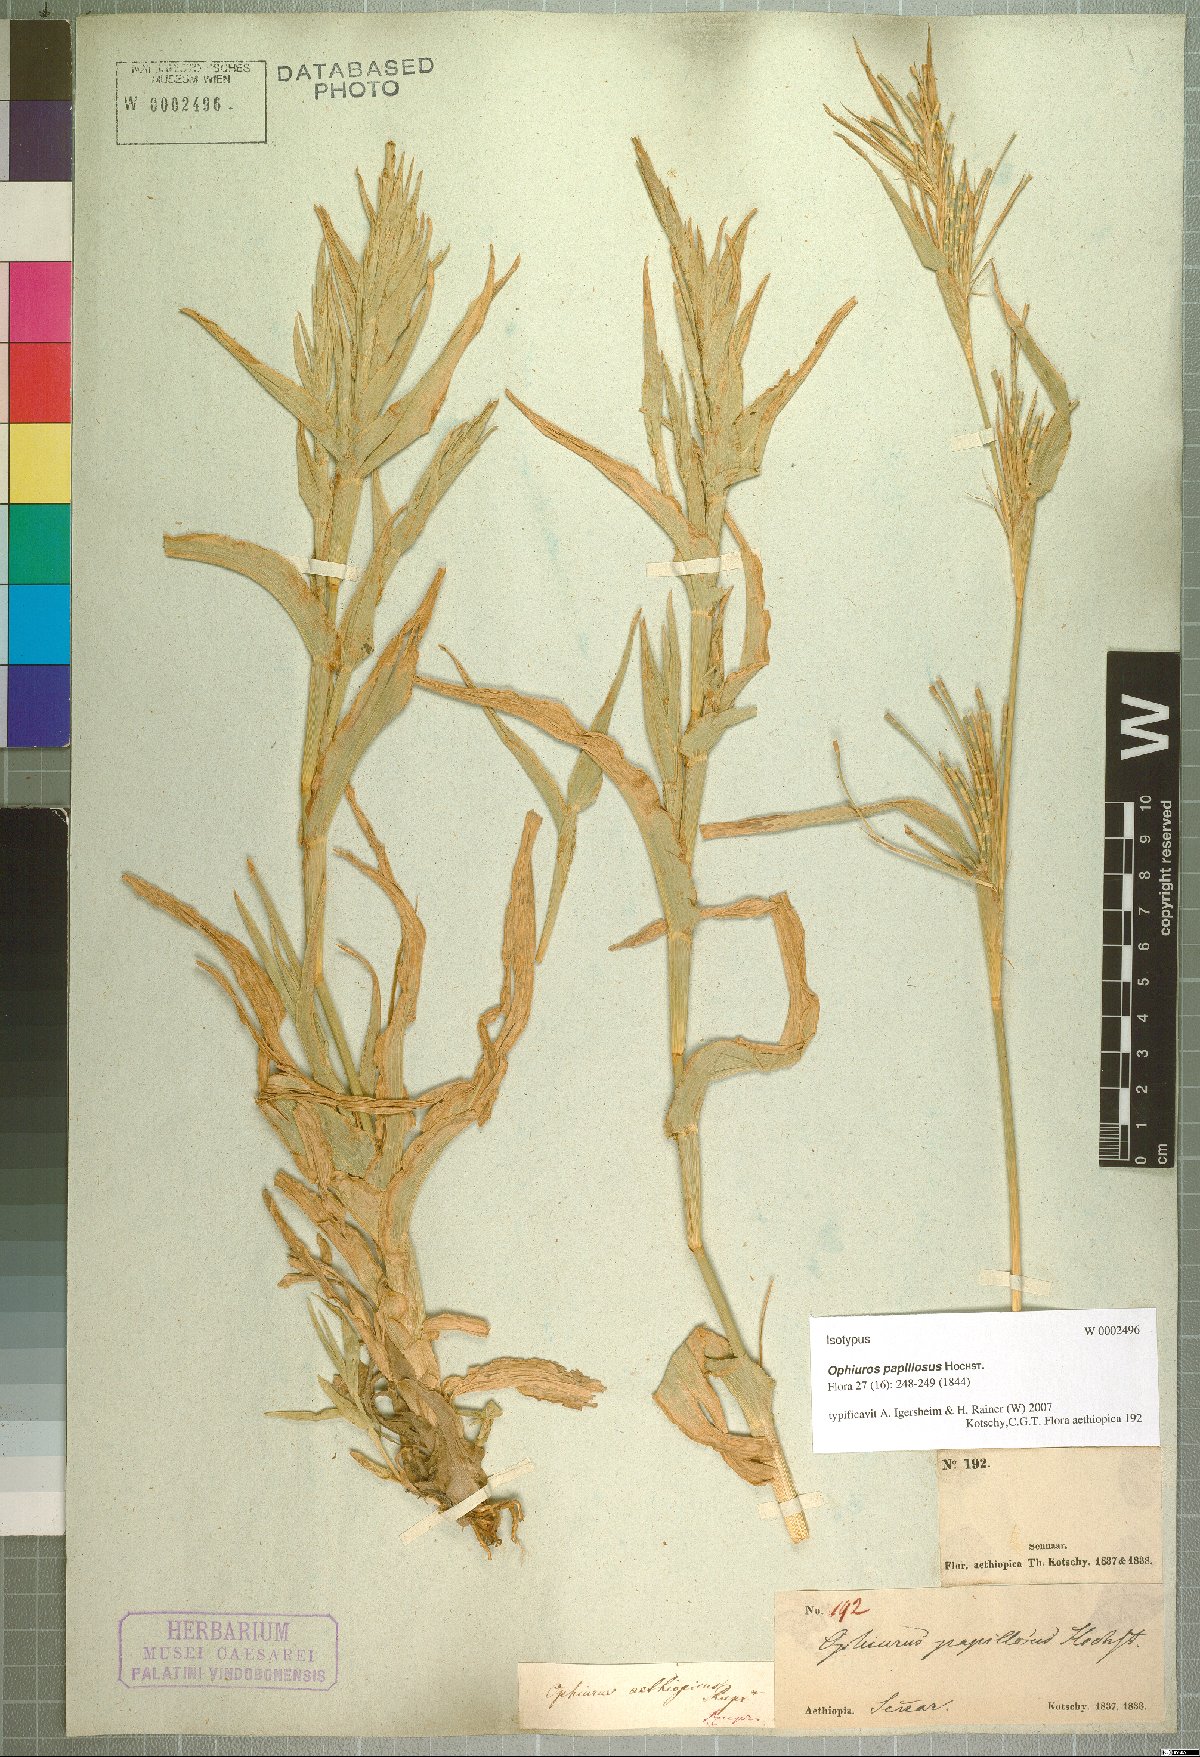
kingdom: Plantae
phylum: Tracheophyta
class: Liliopsida
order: Poales
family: Poaceae
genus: Ophiuros
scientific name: Ophiuros papillosus
